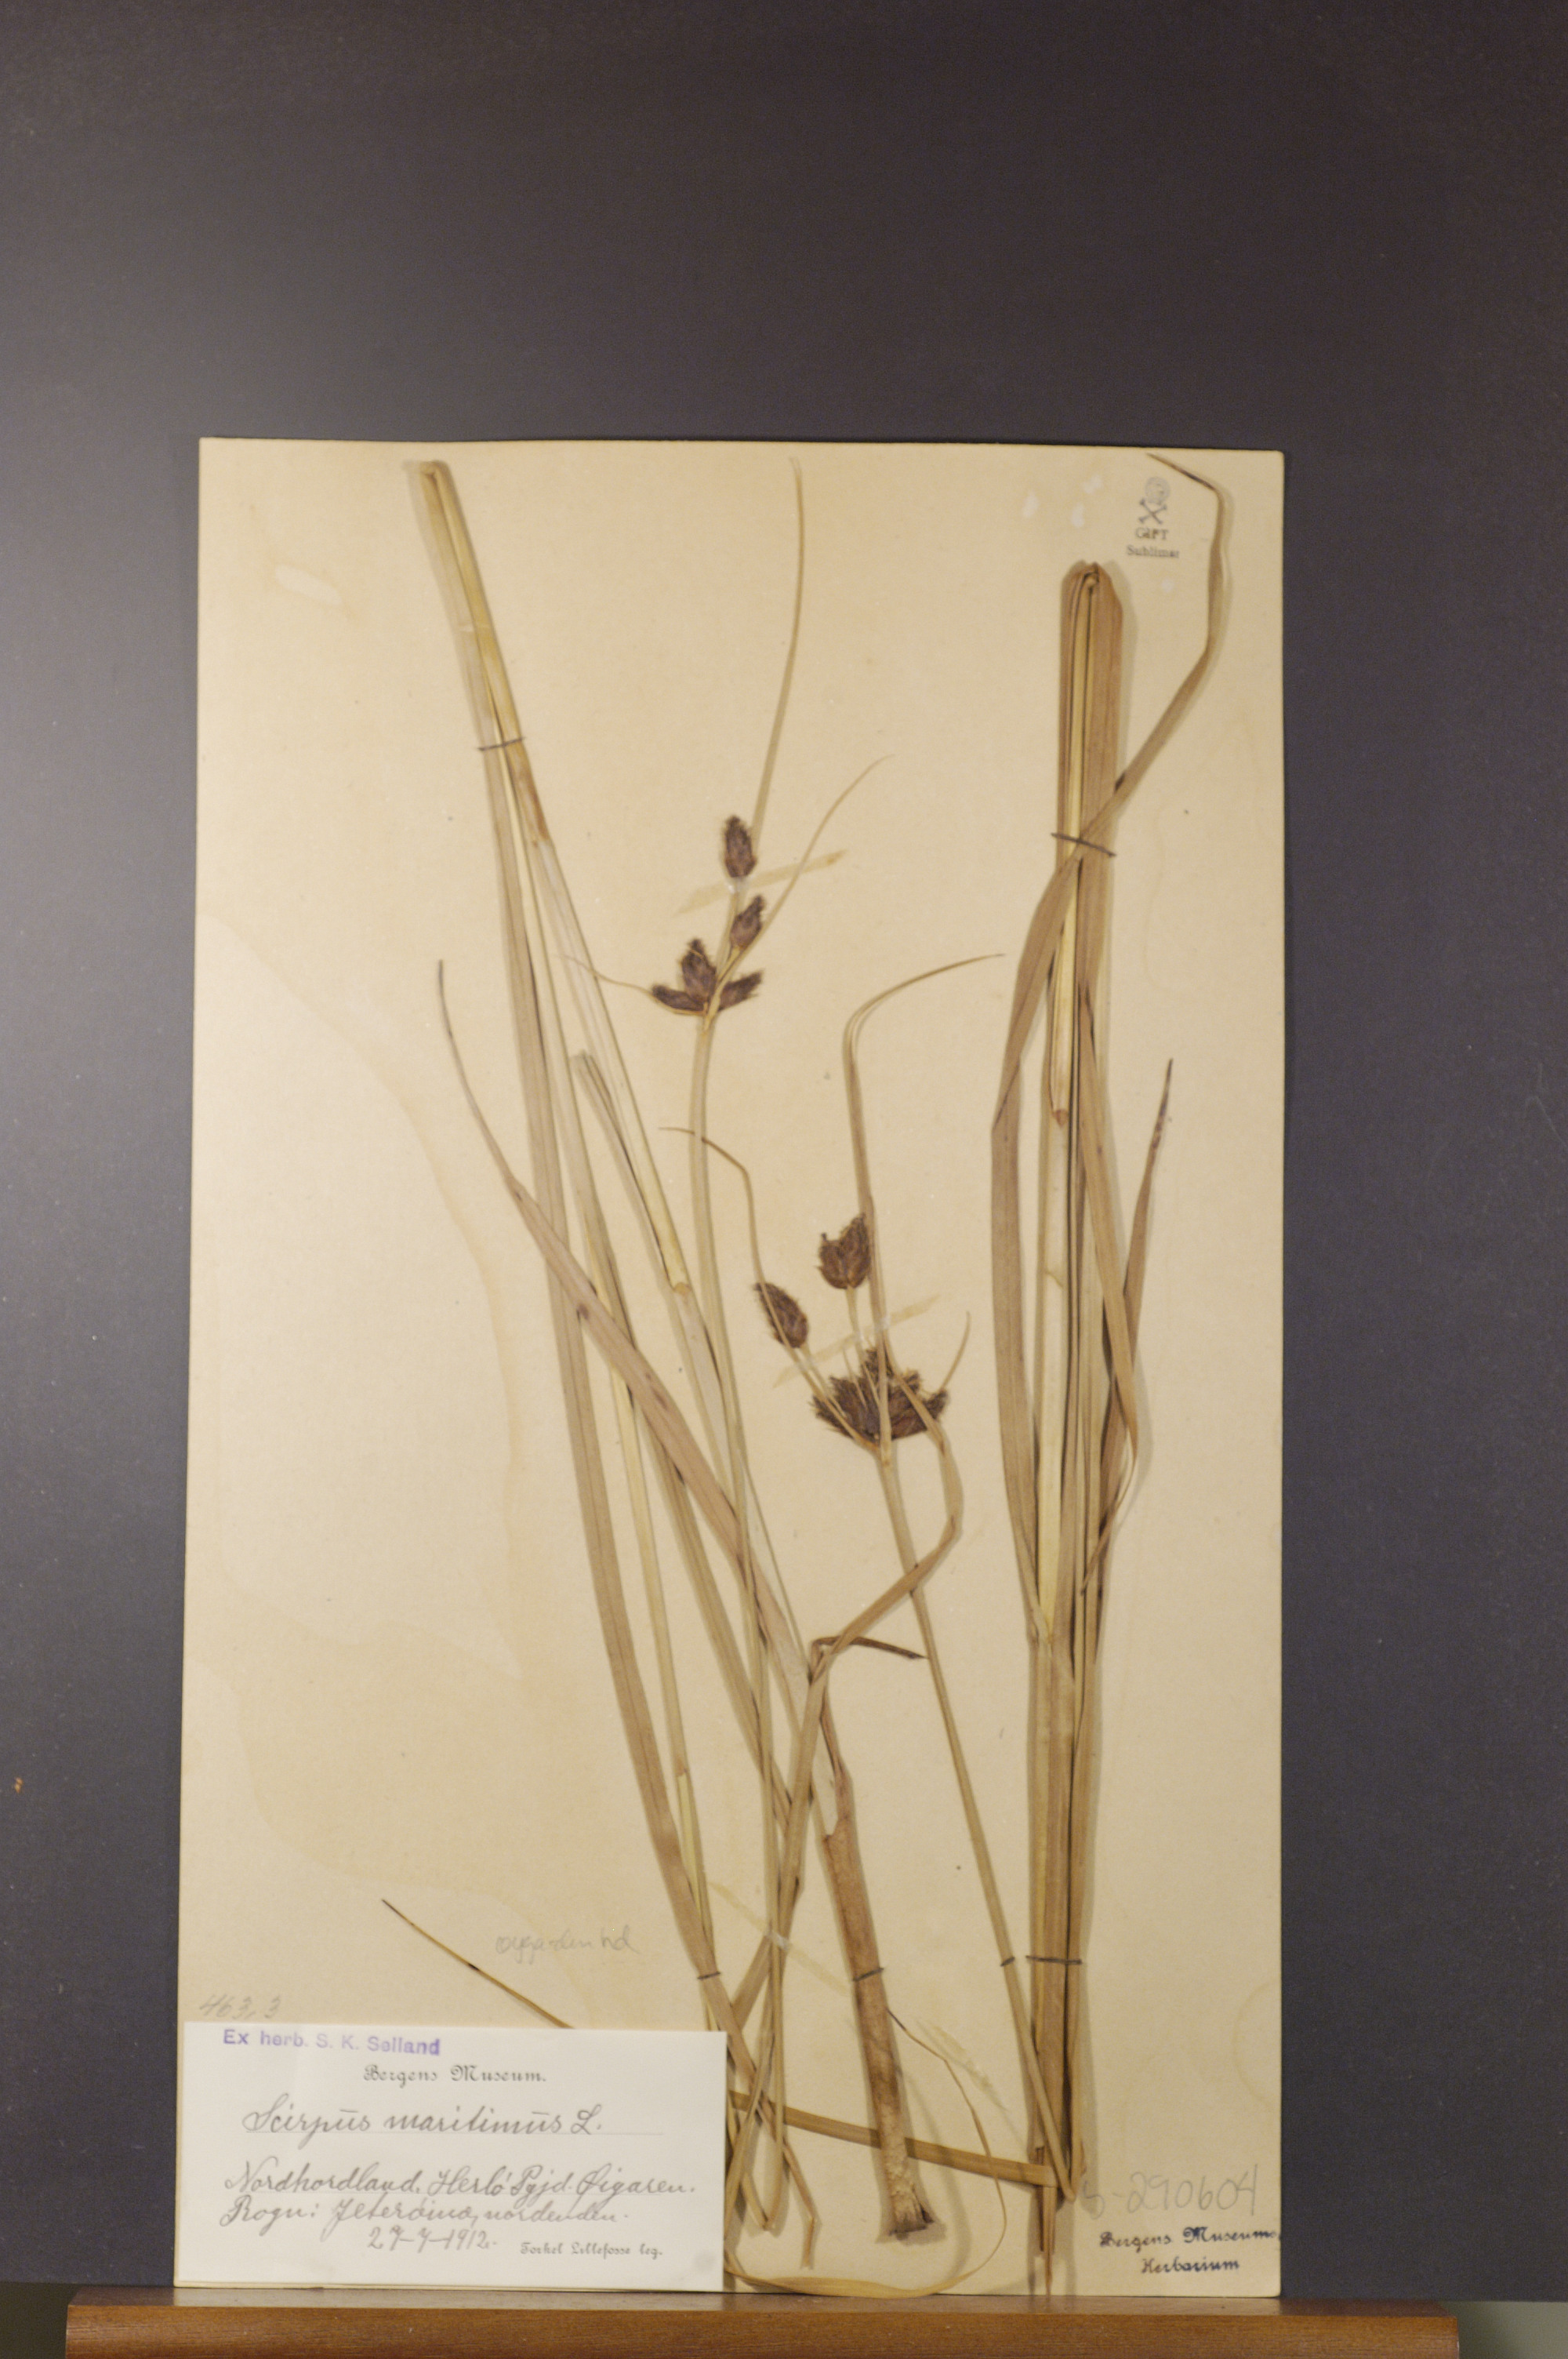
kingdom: Plantae
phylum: Tracheophyta
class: Liliopsida
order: Poales
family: Cyperaceae
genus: Bolboschoenus
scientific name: Bolboschoenus maritimus
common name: Sea club-rush
